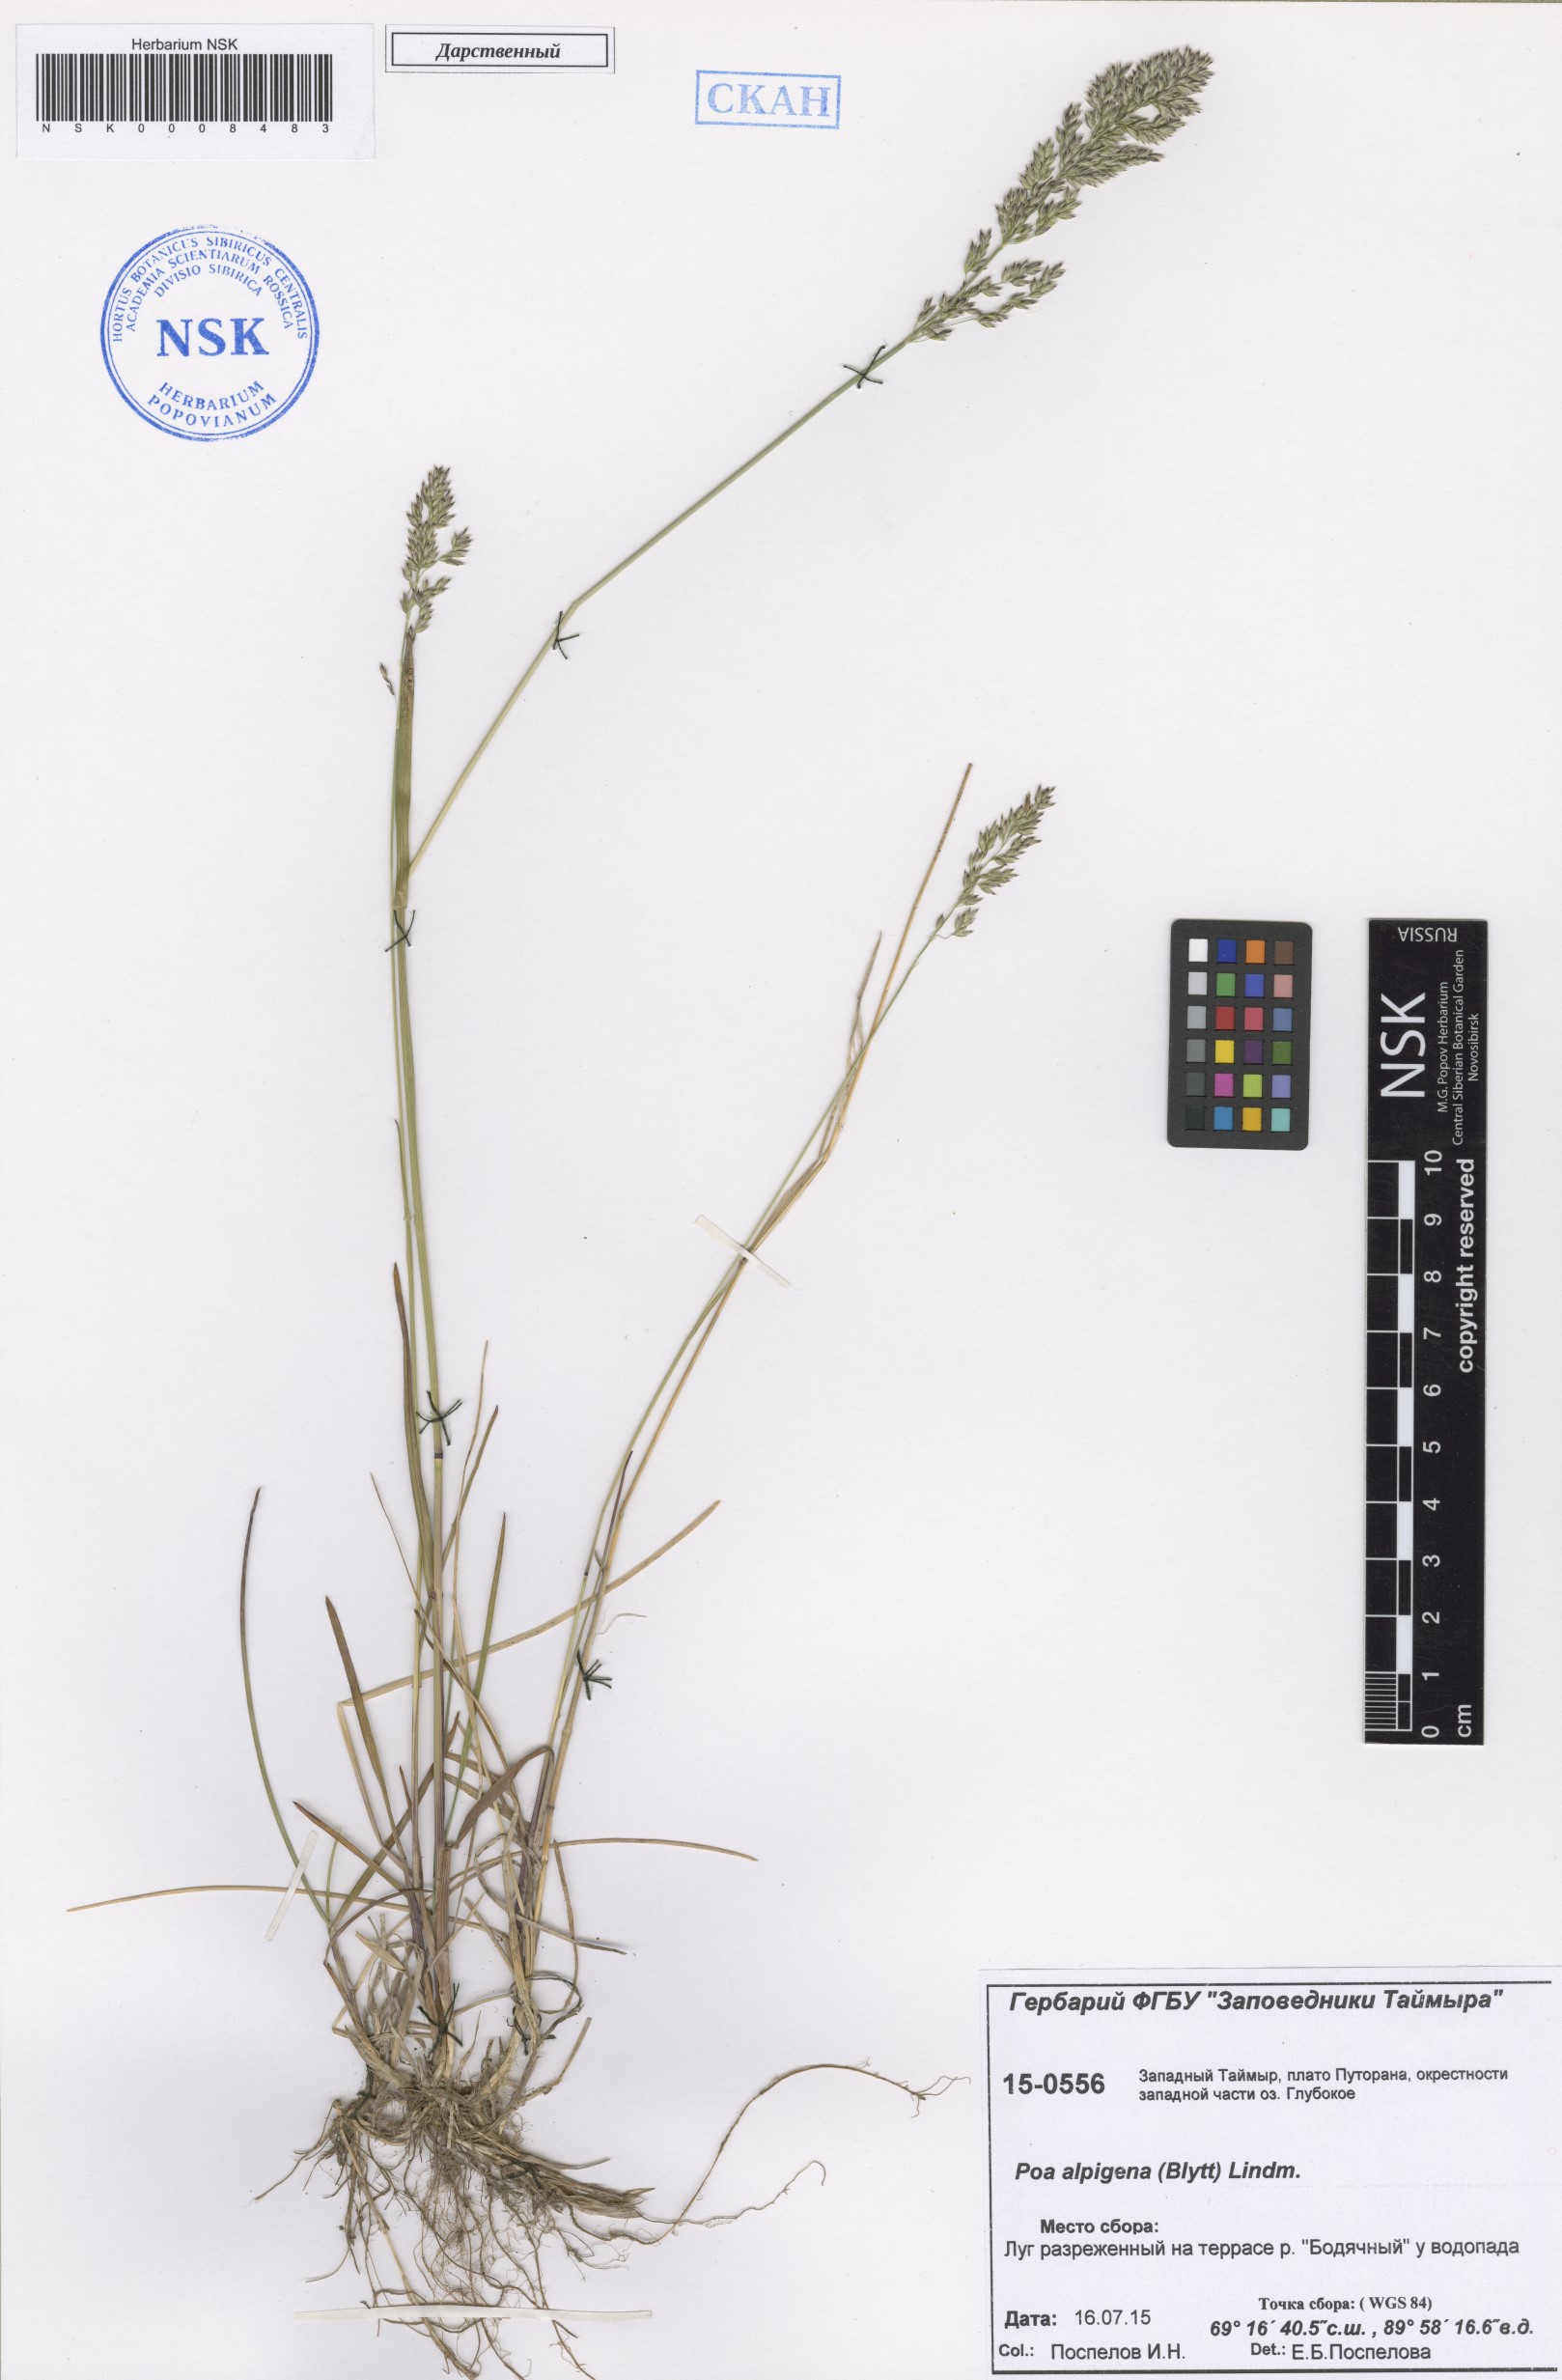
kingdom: Plantae
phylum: Tracheophyta
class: Liliopsida
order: Poales
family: Poaceae
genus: Poa
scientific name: Poa alpigena
